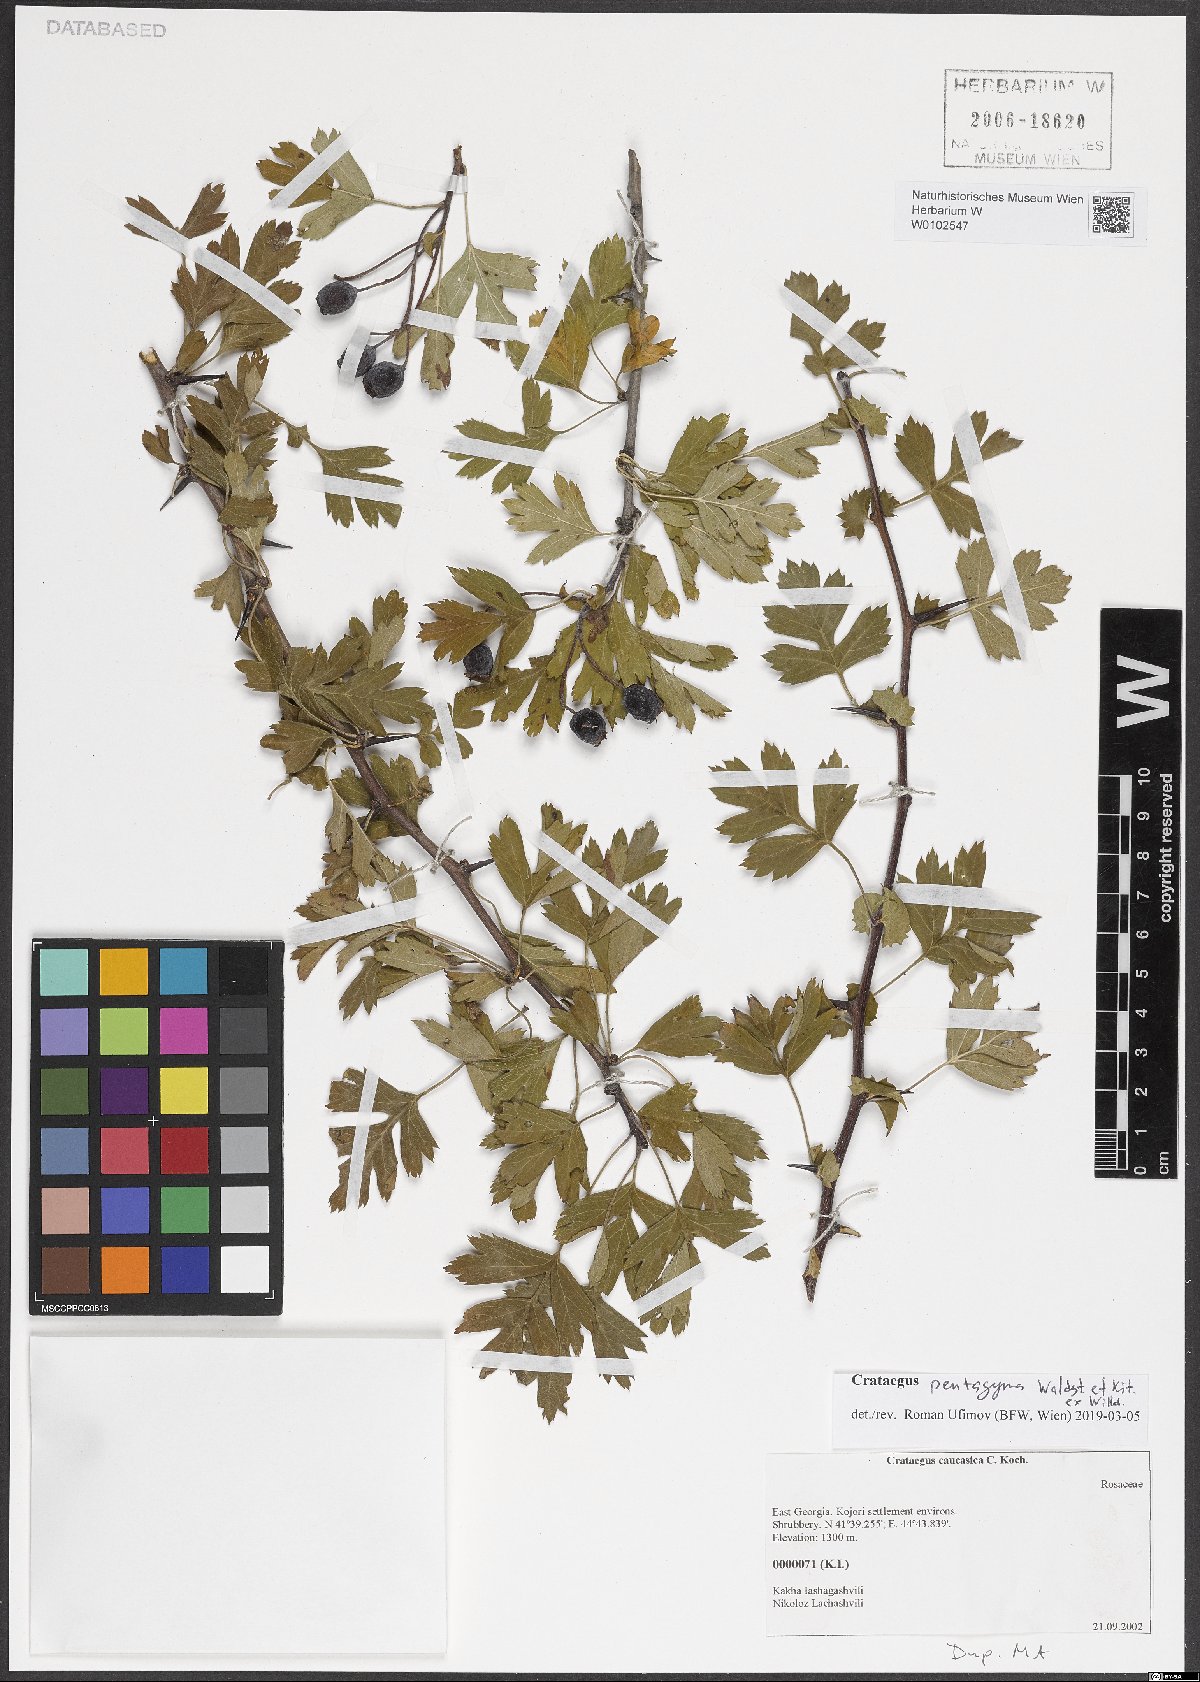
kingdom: Plantae
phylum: Tracheophyta
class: Magnoliopsida
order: Rosales
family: Rosaceae
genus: Crataegus
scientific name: Crataegus pentagyna
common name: Small-flowered black hawthorn
